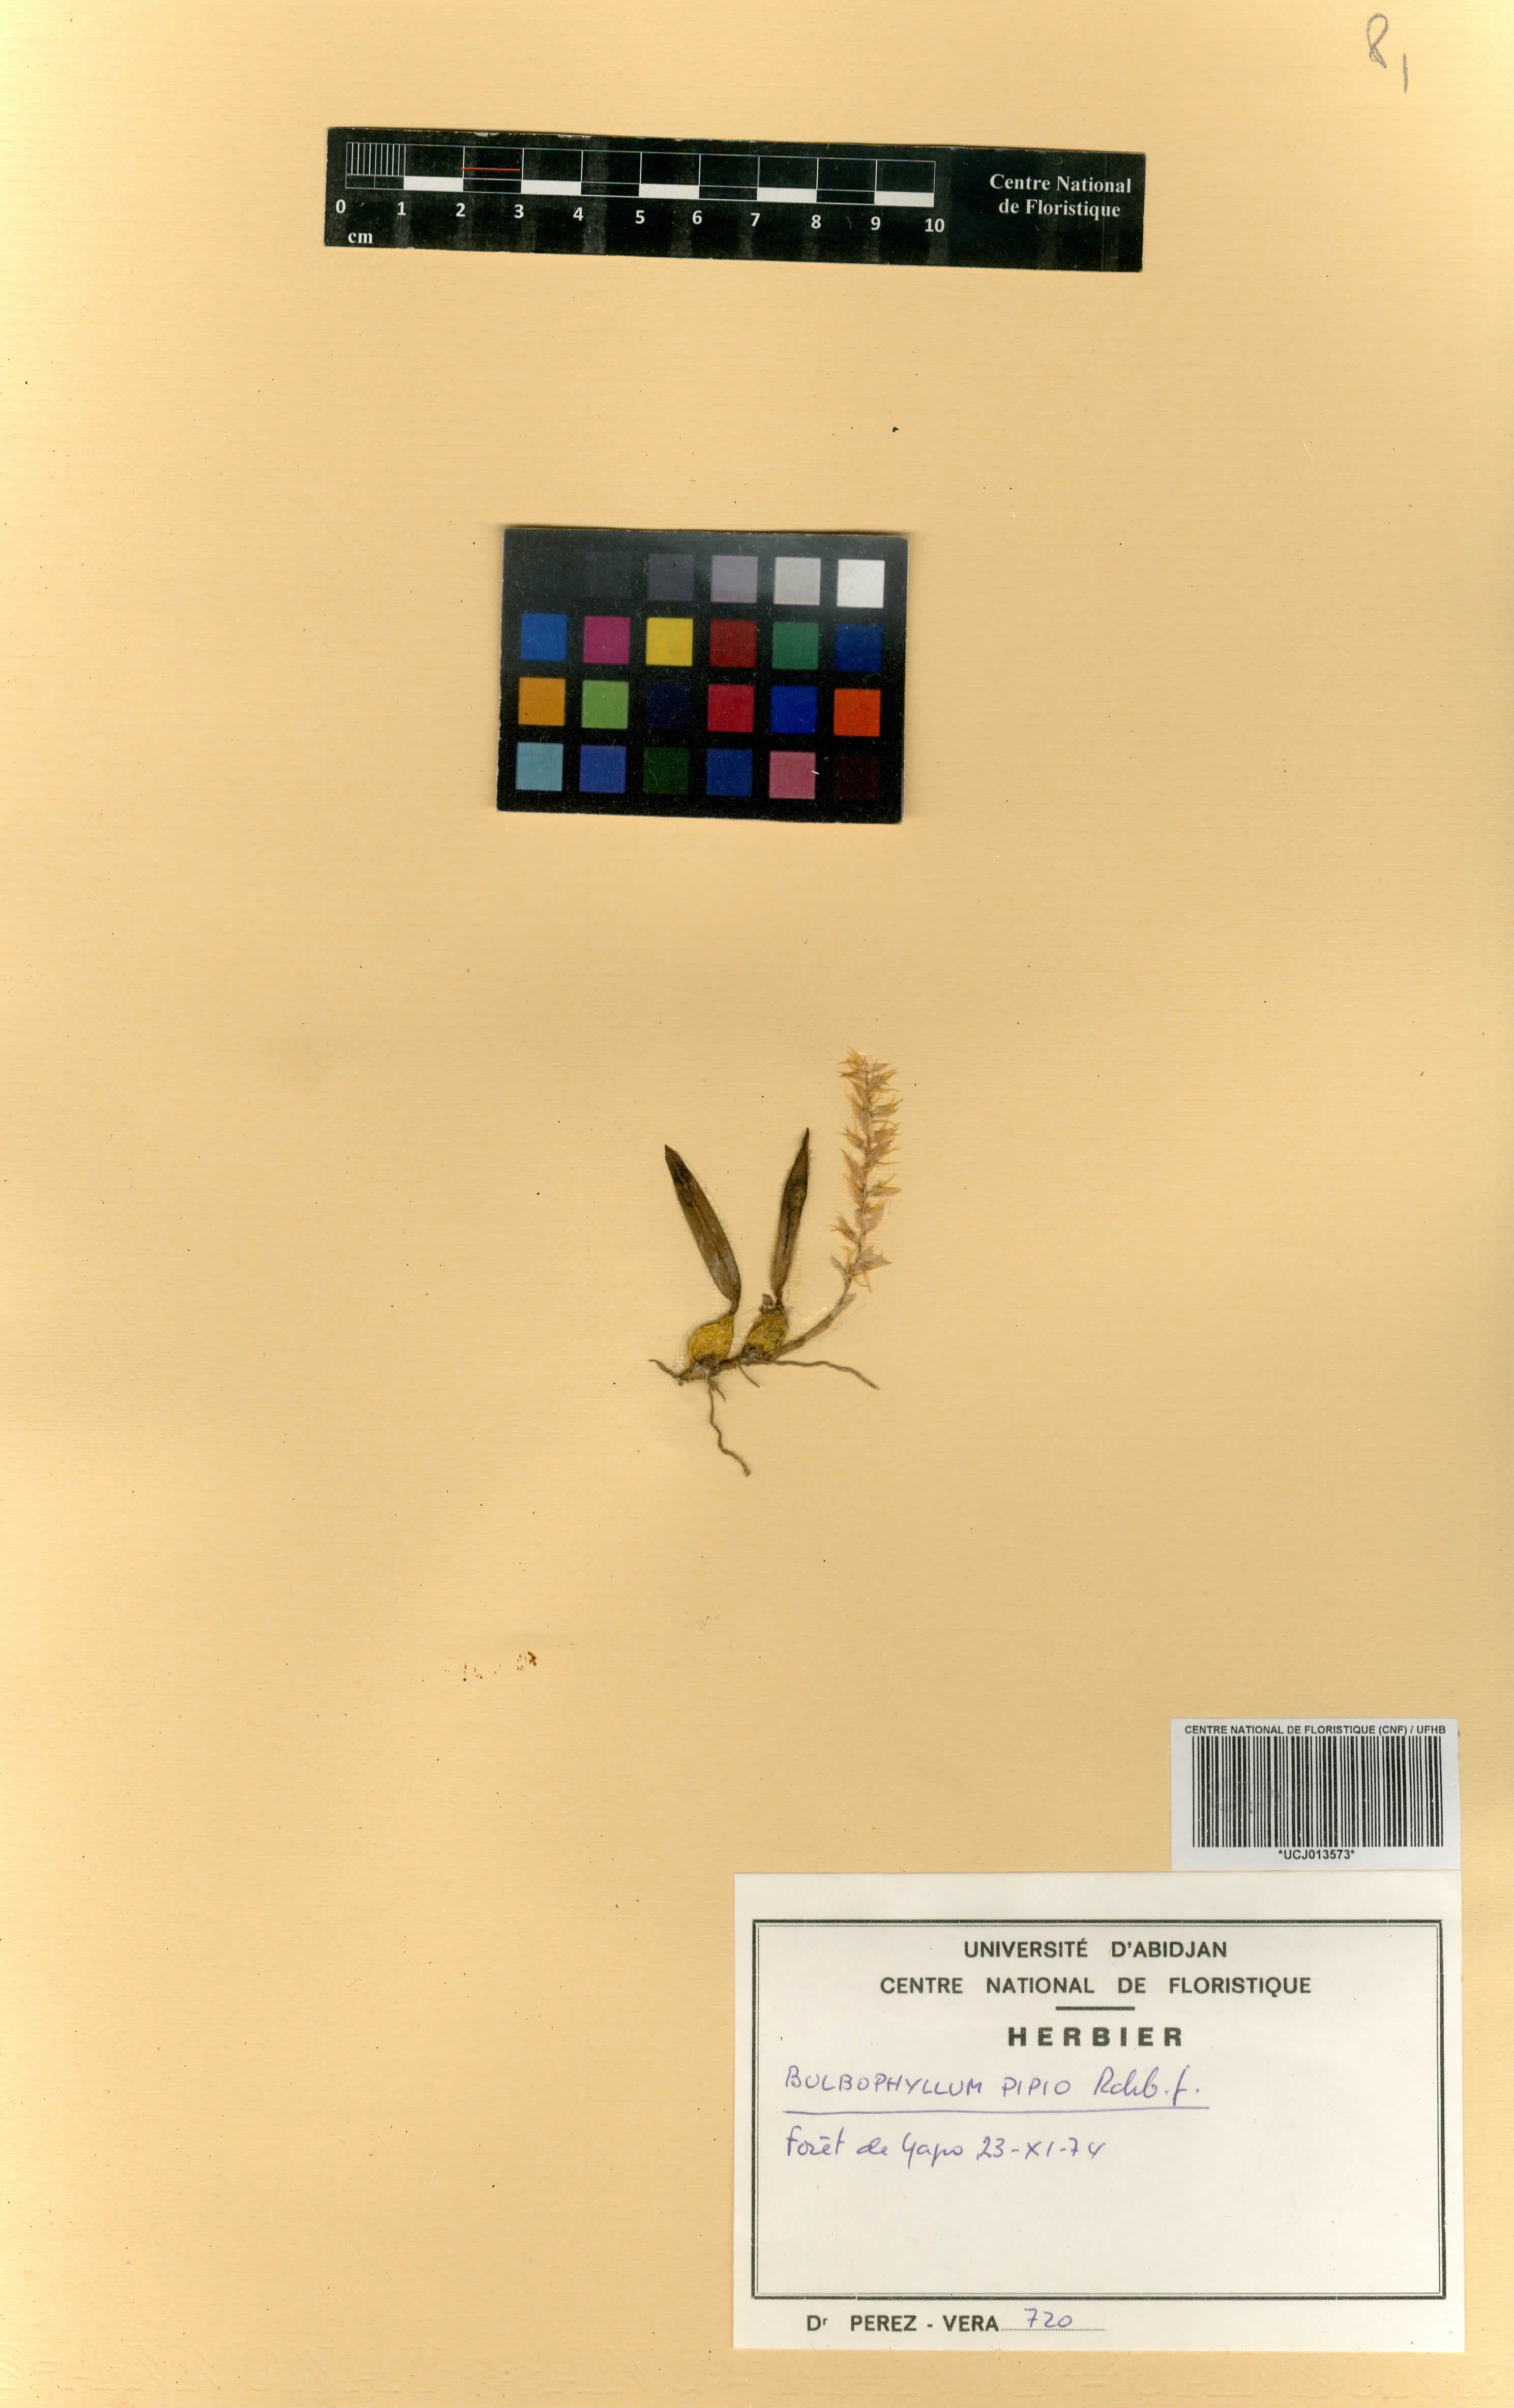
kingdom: Plantae
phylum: Tracheophyta
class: Liliopsida
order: Asparagales
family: Orchidaceae
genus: Bulbophyllum
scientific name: Bulbophyllum pipio
